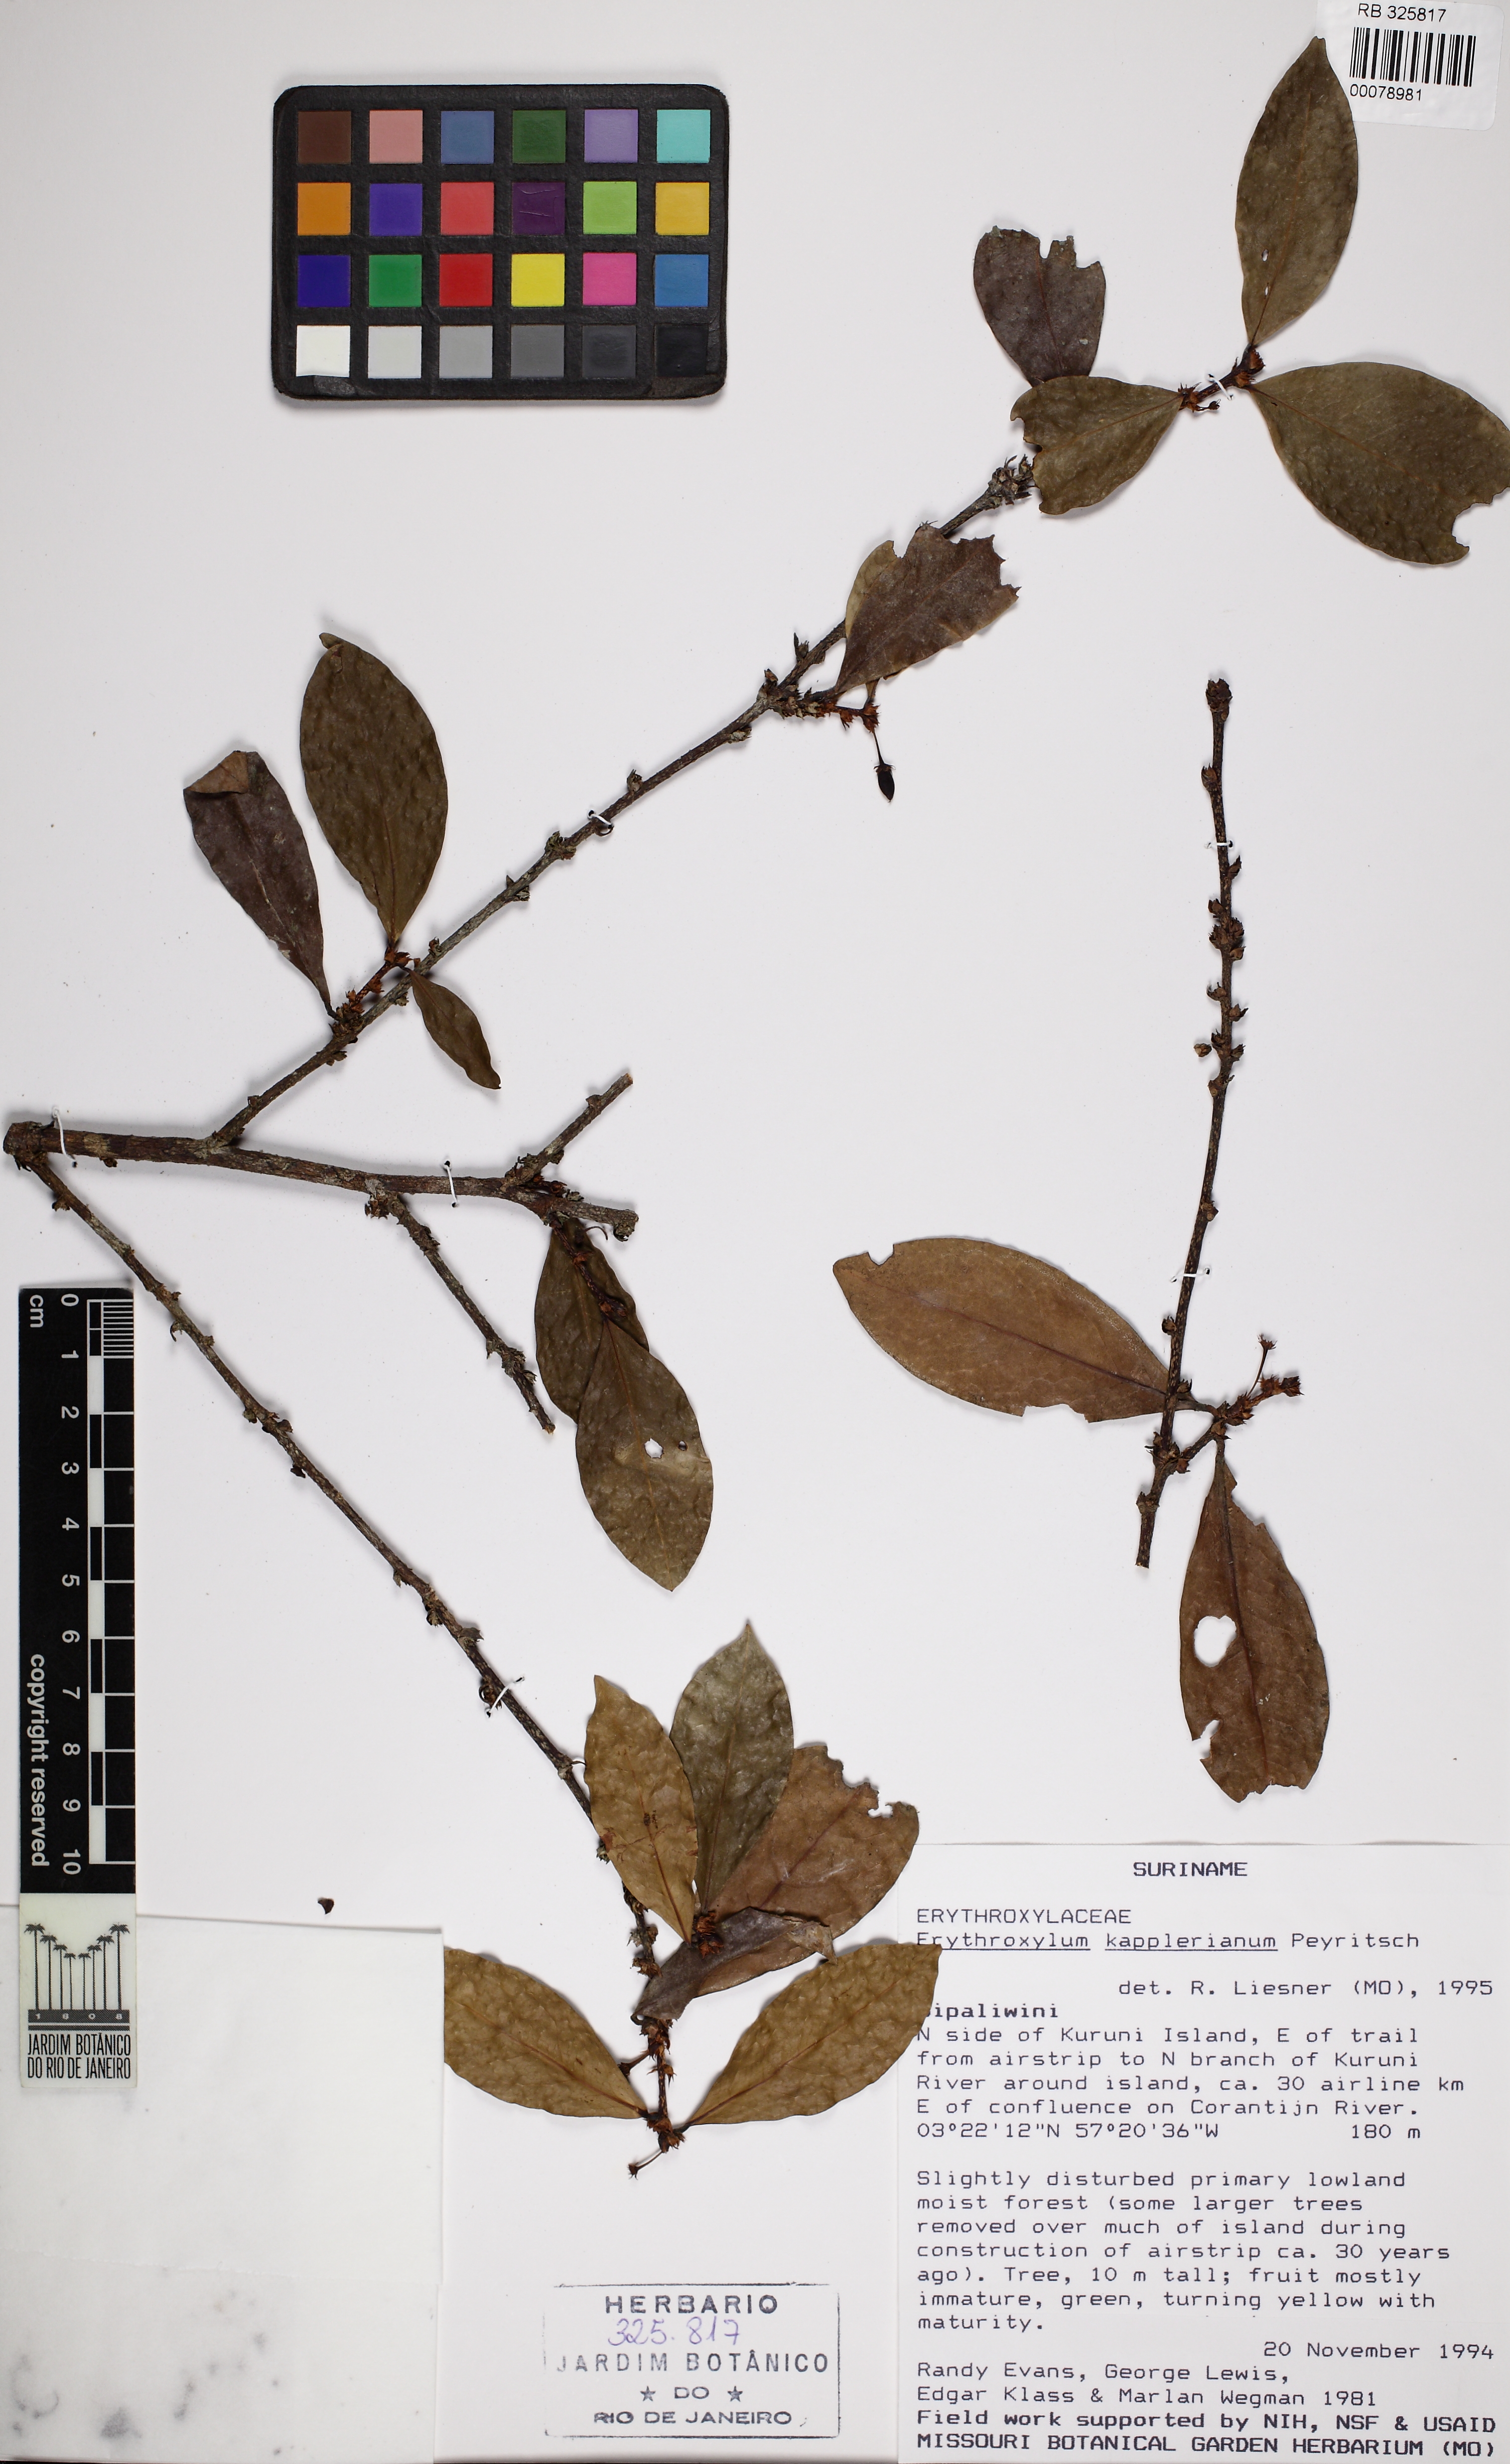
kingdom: Plantae
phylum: Tracheophyta
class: Magnoliopsida
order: Malpighiales
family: Erythroxylaceae
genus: Erythroxylum
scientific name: Erythroxylum kapplerianum
